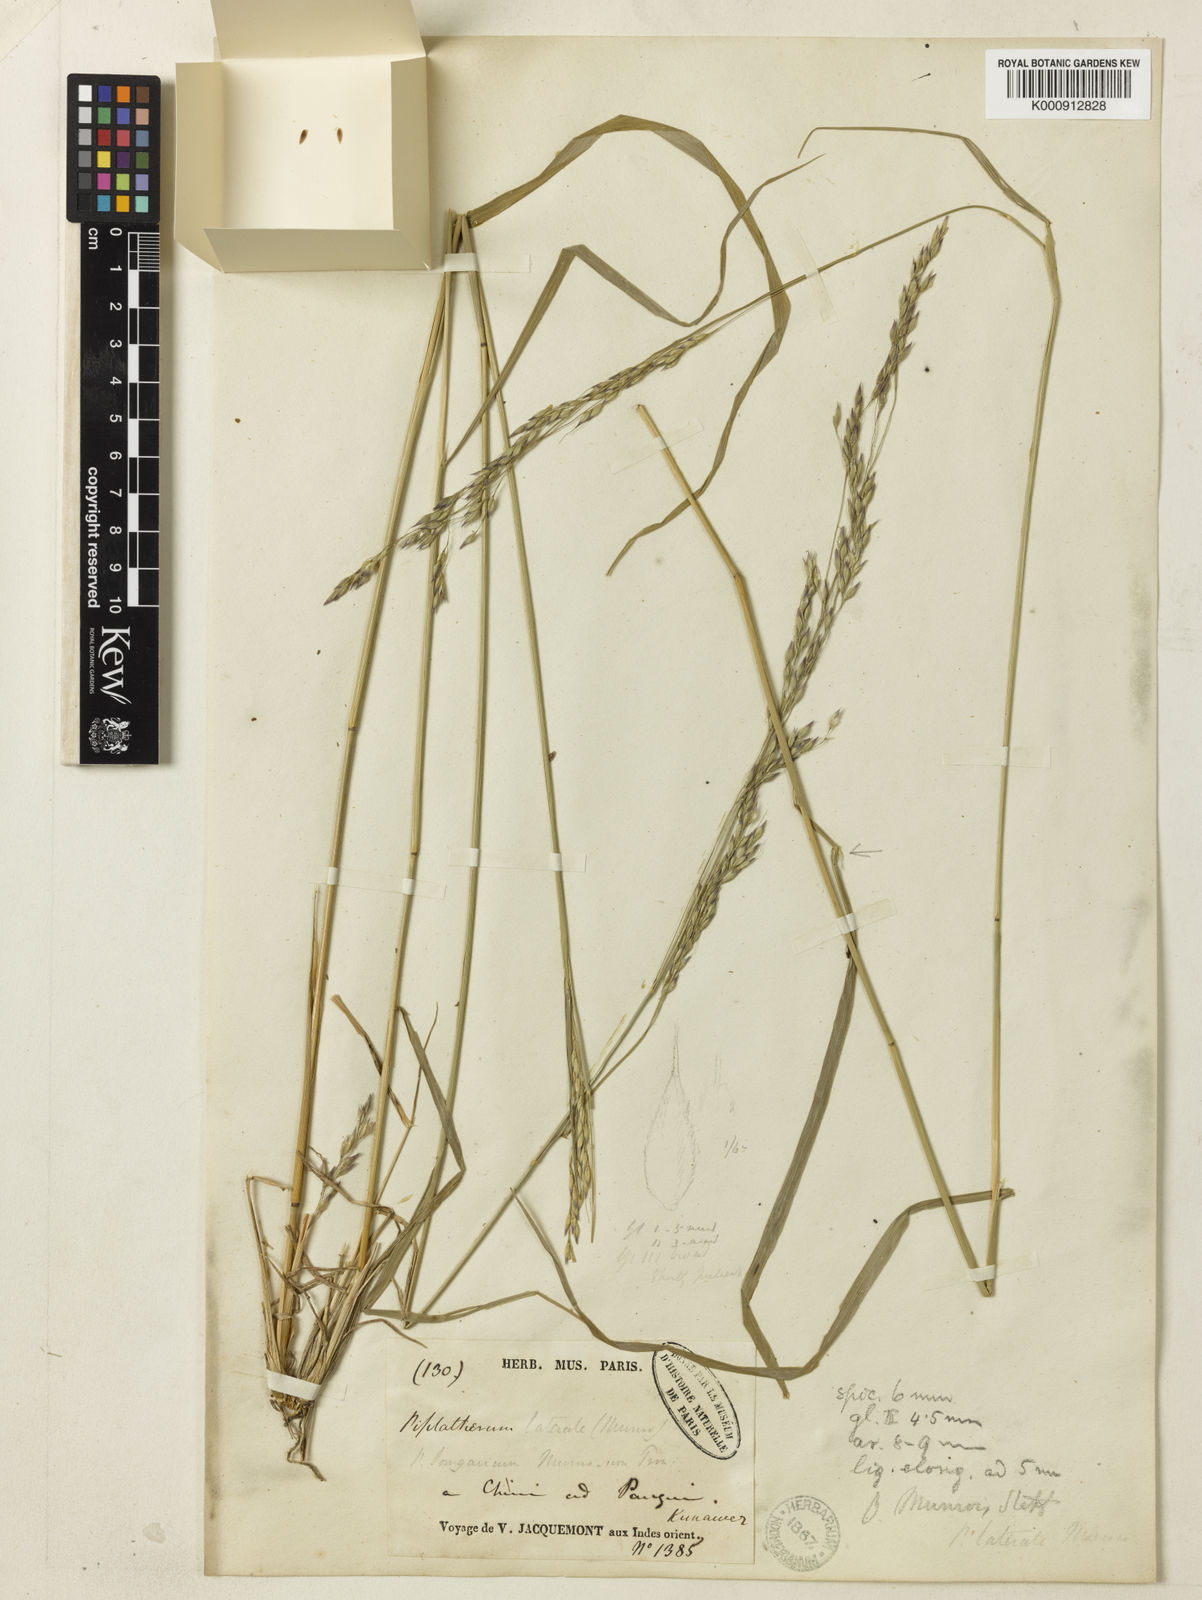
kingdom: Plantae
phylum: Tracheophyta
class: Liliopsida
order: Poales
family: Poaceae
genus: Piptatherum
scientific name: Piptatherum munroi
